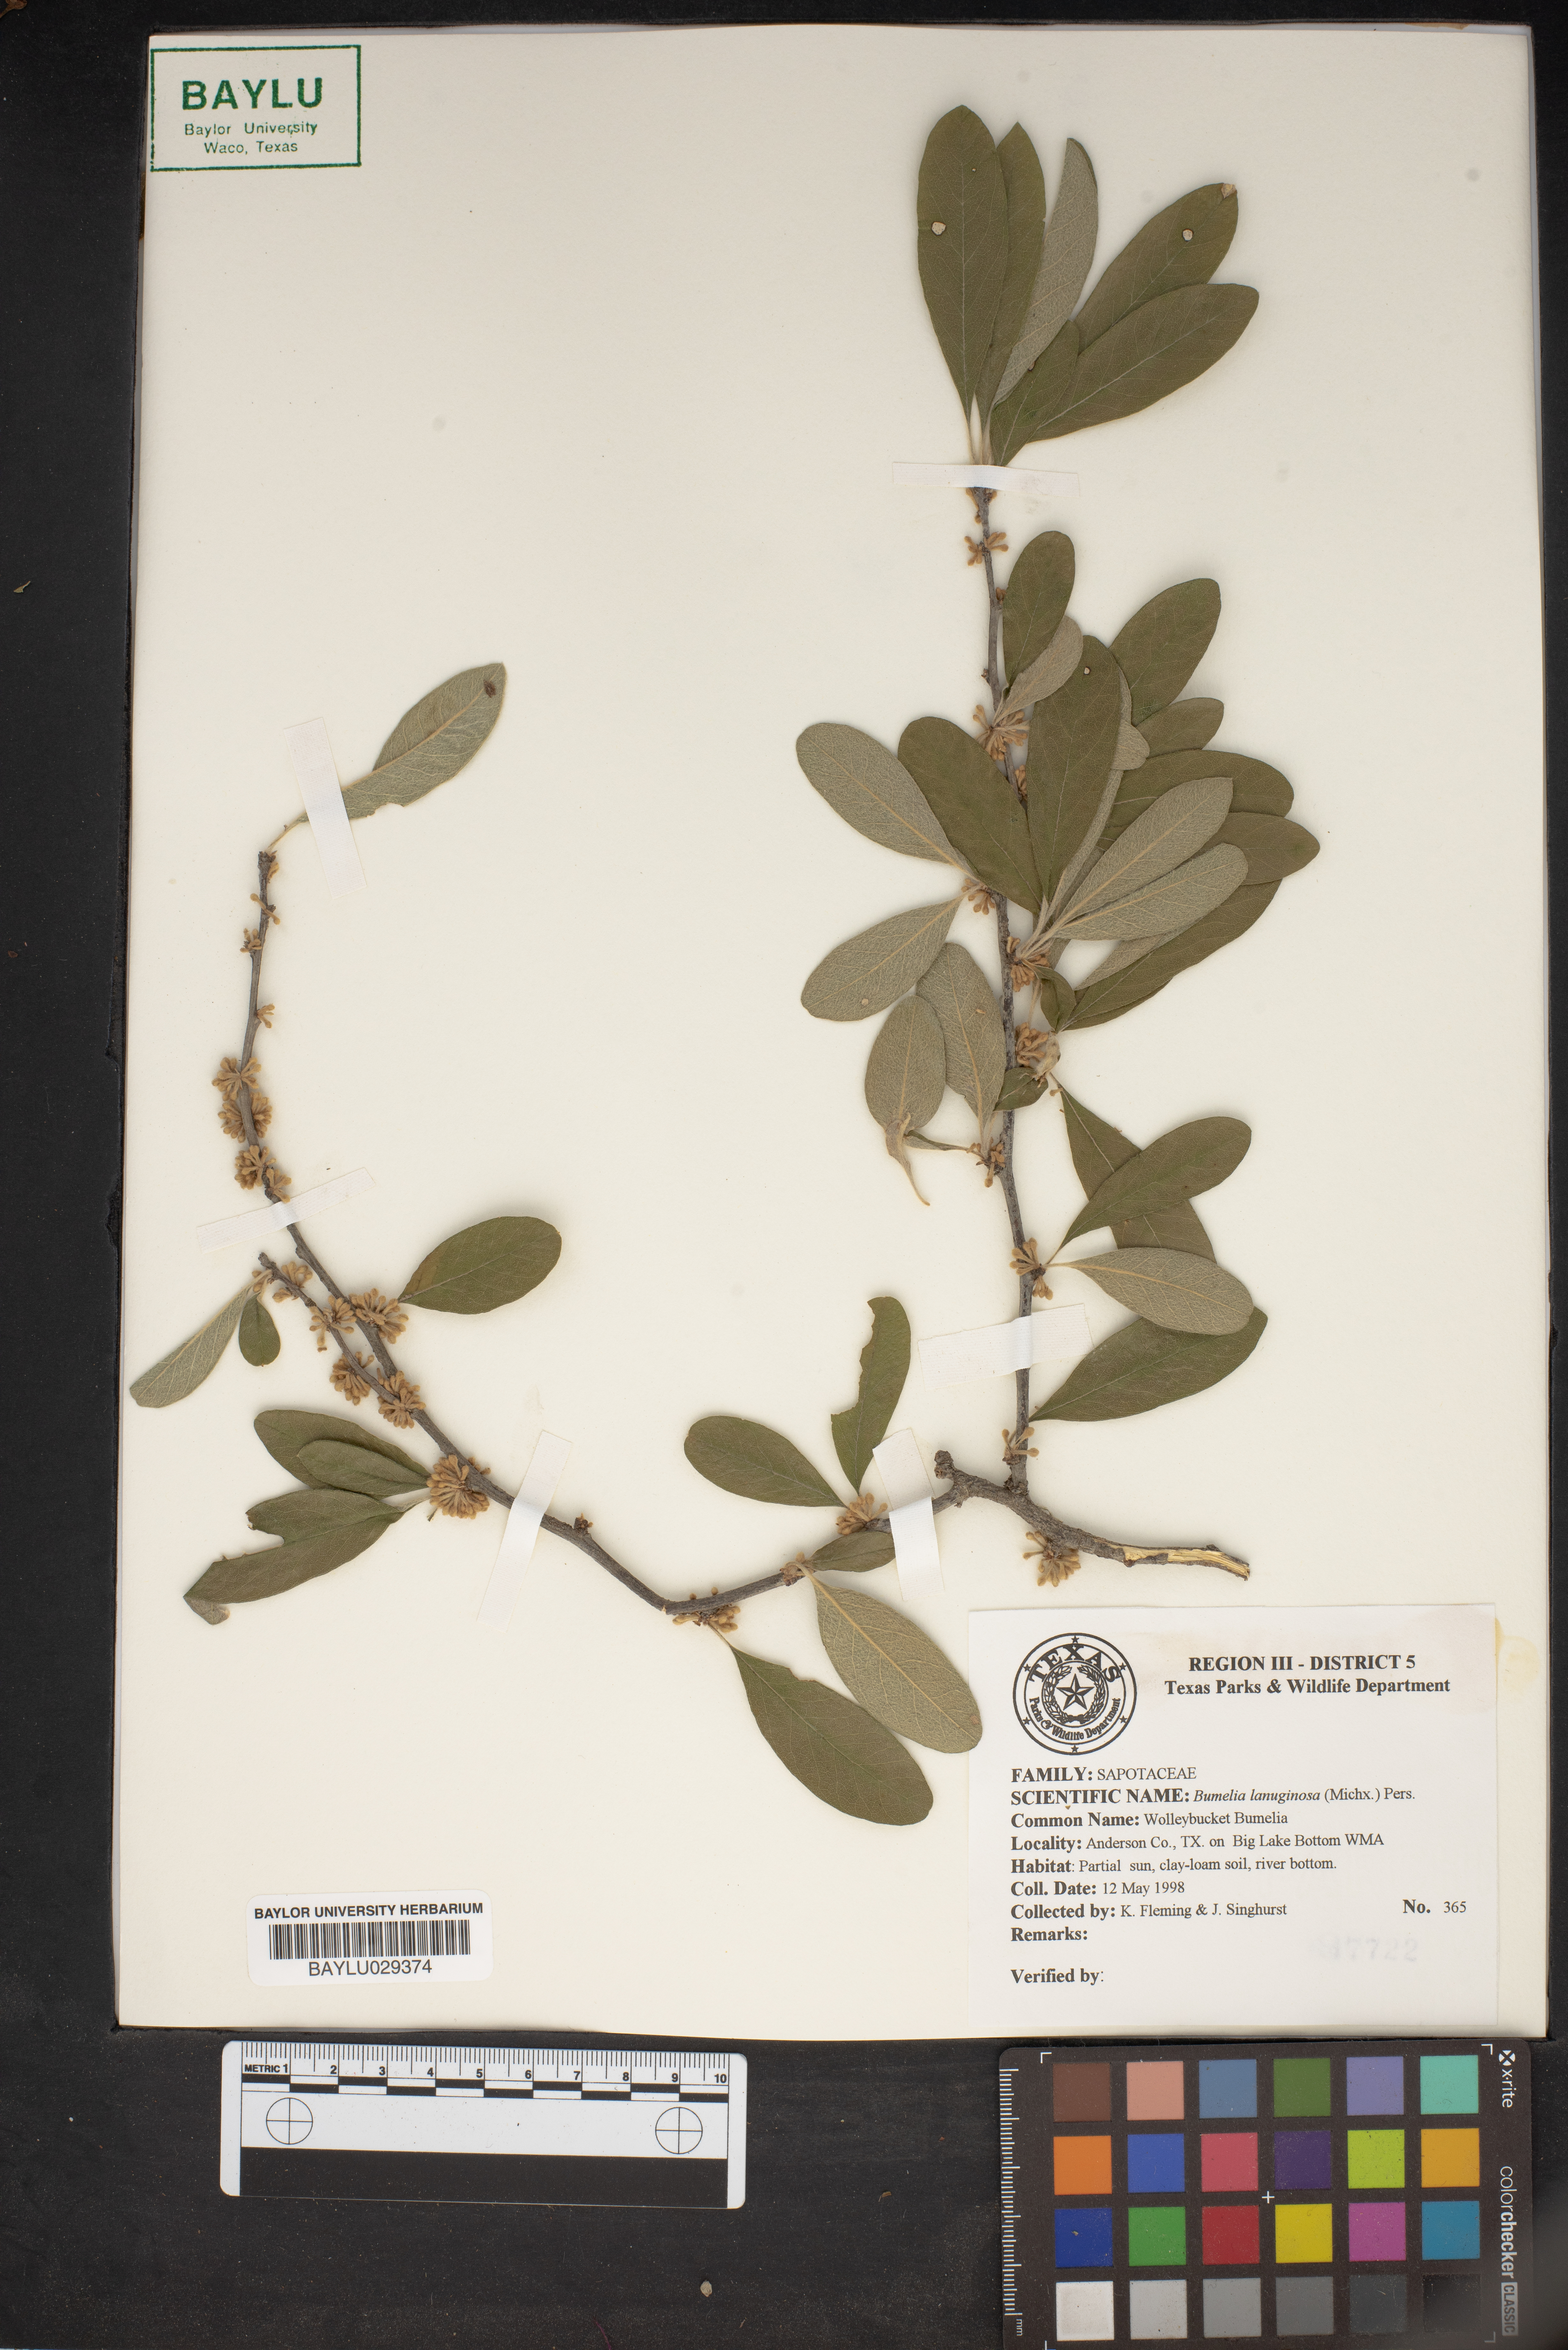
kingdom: Plantae
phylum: Tracheophyta
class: Magnoliopsida
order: Ericales
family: Sapotaceae
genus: Sideroxylon
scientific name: Sideroxylon lanuginosum
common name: Chittamwood
